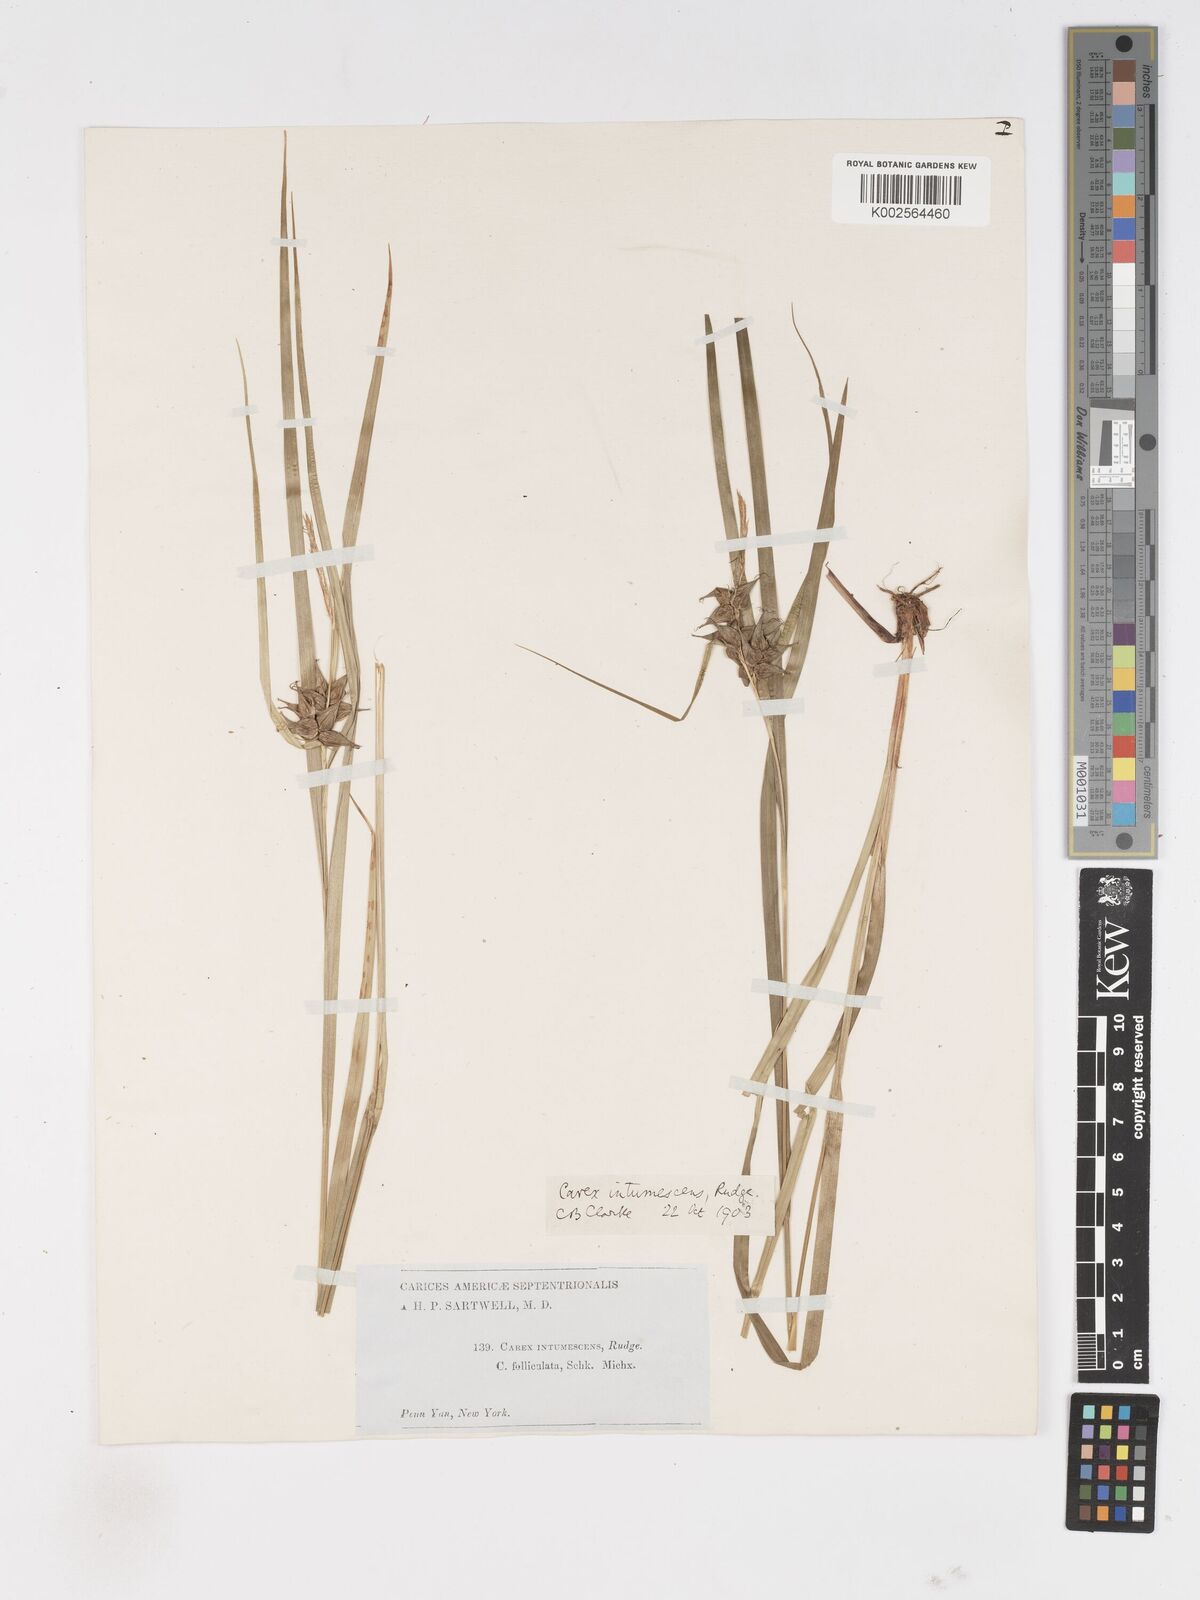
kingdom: Plantae
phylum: Tracheophyta
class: Liliopsida
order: Poales
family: Cyperaceae
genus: Carex
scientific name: Carex intumescens
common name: Greater bladder sedge
